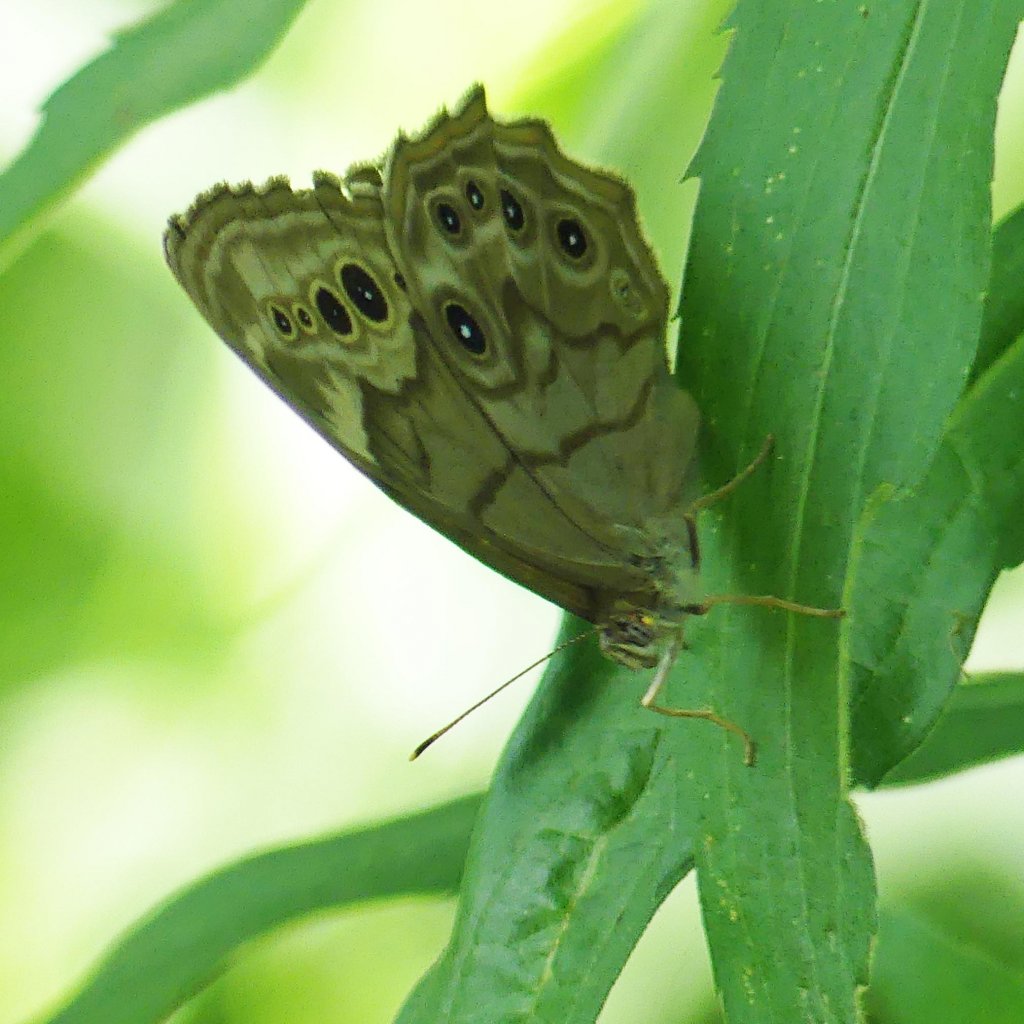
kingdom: Animalia
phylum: Arthropoda
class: Insecta
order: Lepidoptera
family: Nymphalidae
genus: Lethe
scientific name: Lethe anthedon
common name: Northern Pearly-Eye
